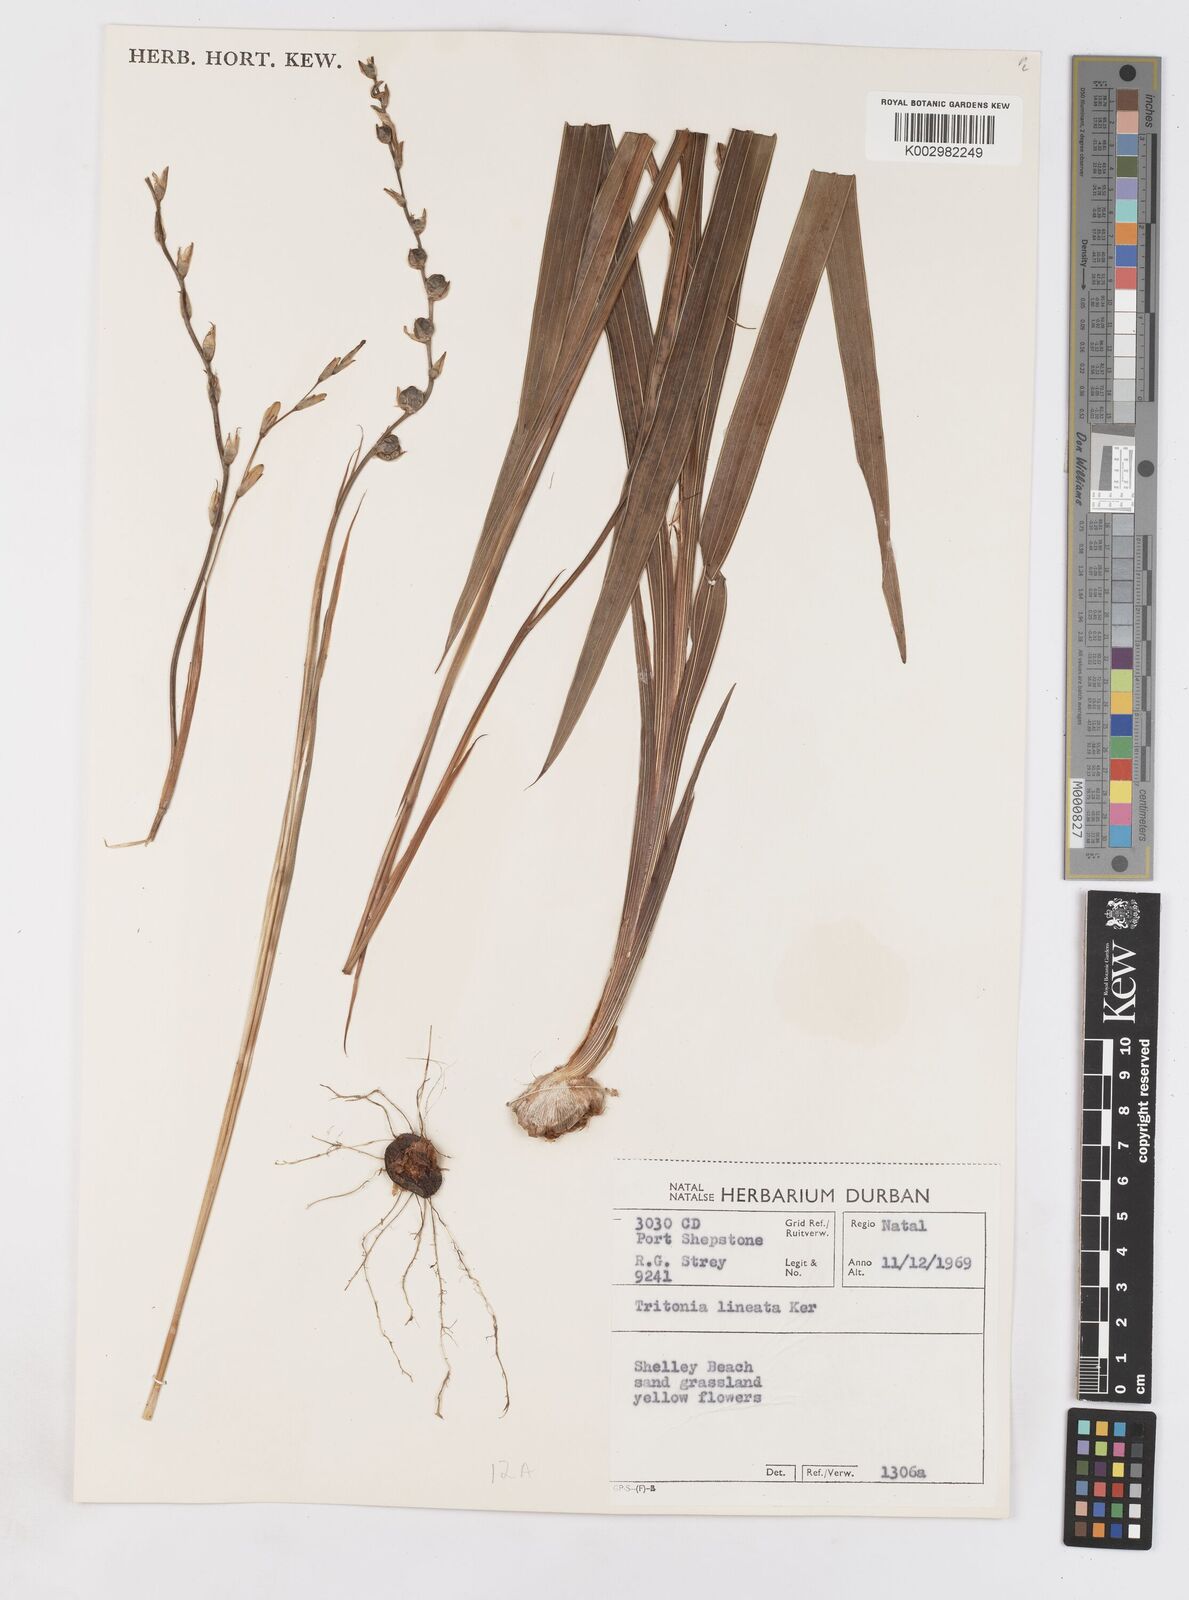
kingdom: Plantae
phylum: Tracheophyta
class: Liliopsida
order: Asparagales
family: Iridaceae
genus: Tritonia
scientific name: Tritonia gladiolaris
